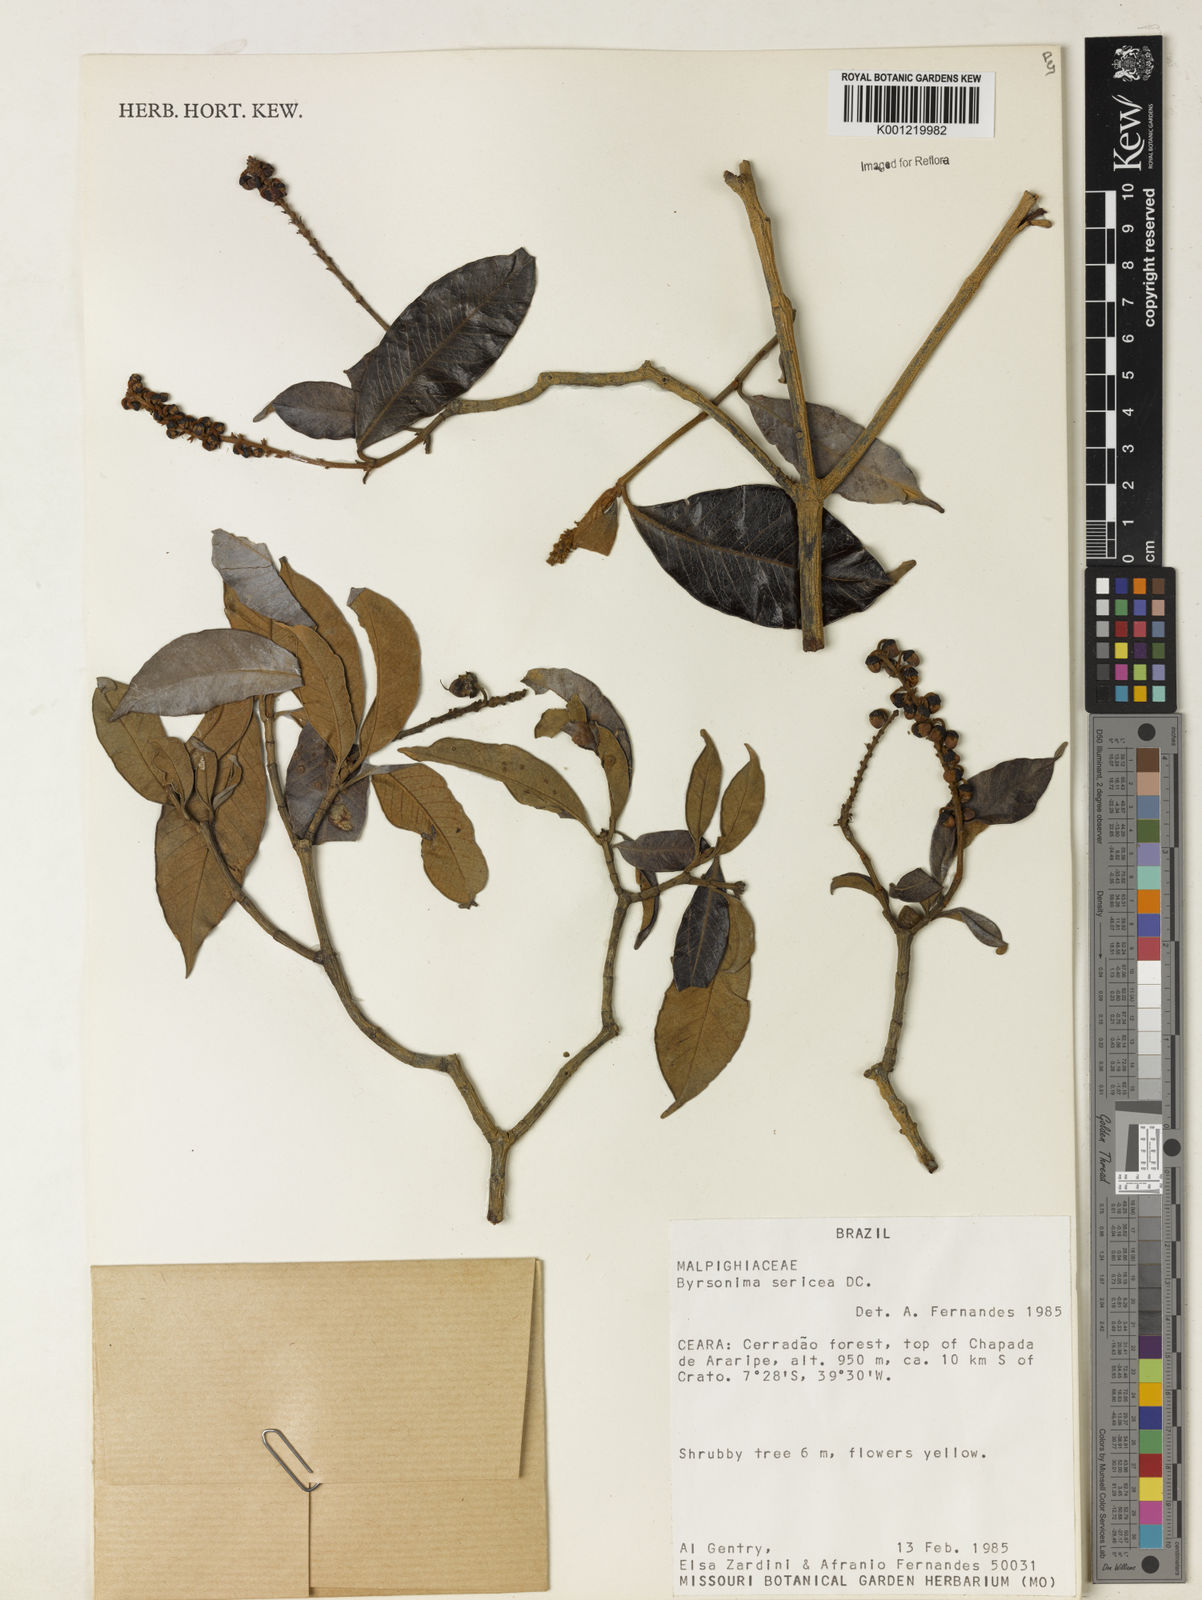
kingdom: Plantae
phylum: Tracheophyta
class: Magnoliopsida
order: Malpighiales
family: Malpighiaceae
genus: Byrsonima
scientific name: Byrsonima sericea
